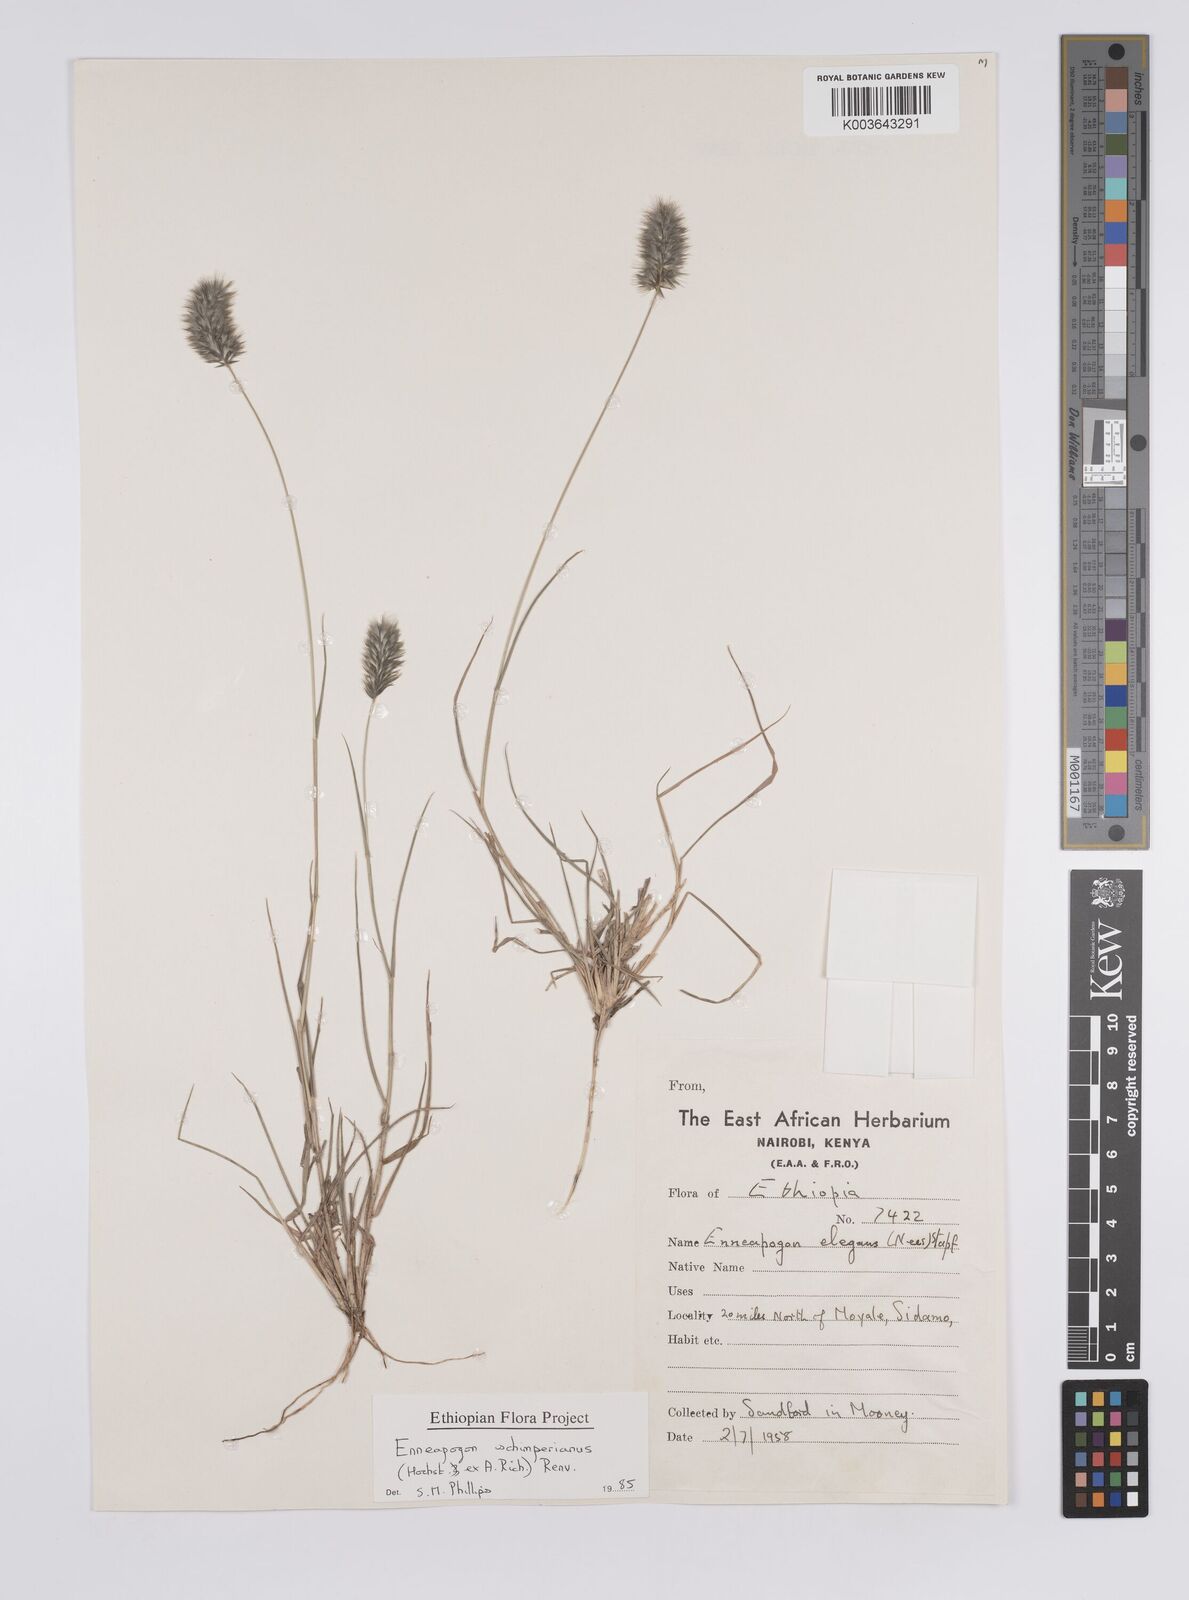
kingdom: Plantae
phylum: Tracheophyta
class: Liliopsida
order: Poales
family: Poaceae
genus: Enneapogon
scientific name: Enneapogon persicus
